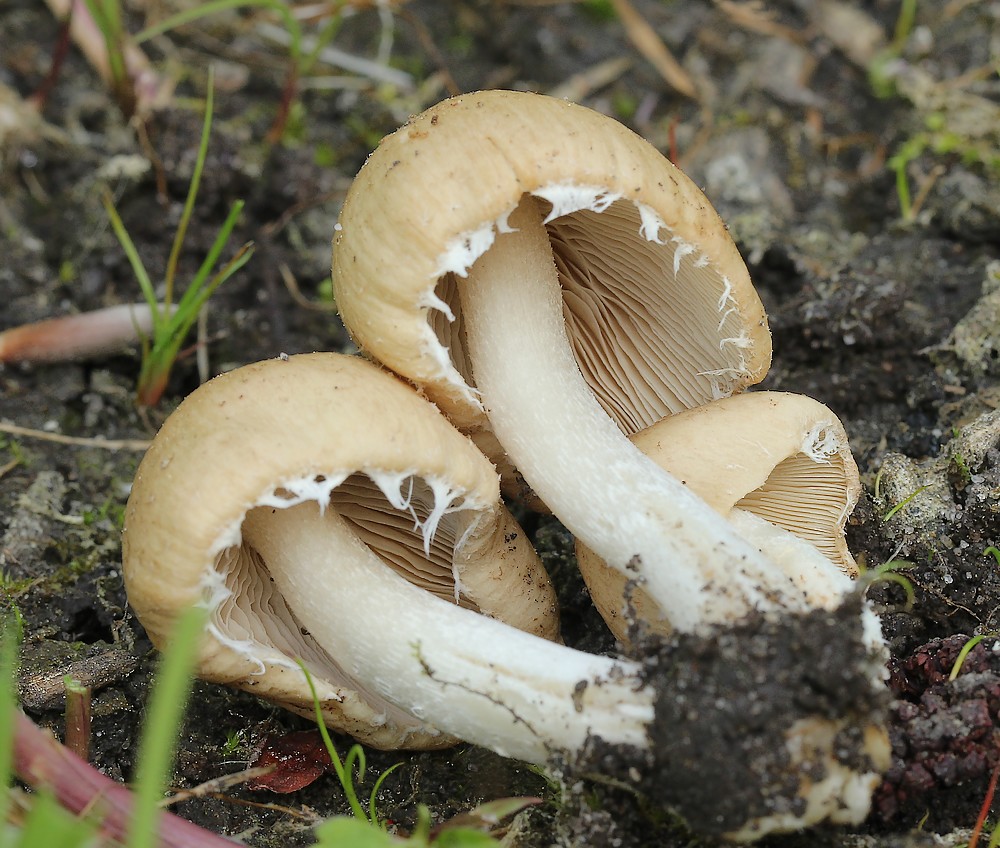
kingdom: Fungi
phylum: Basidiomycota
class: Agaricomycetes
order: Agaricales
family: Psathyrellaceae
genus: Candolleomyces
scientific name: Candolleomyces candolleanus
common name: Candolles mørkhat
